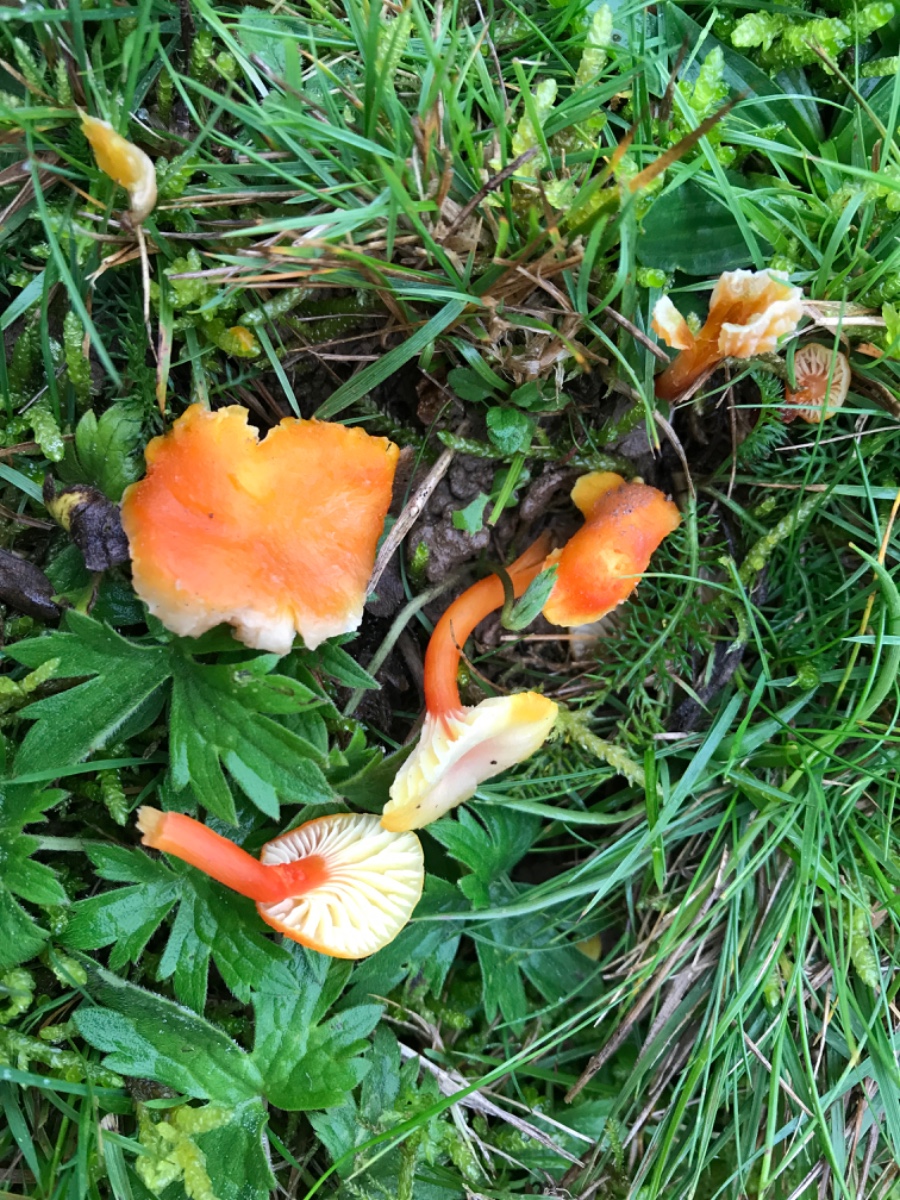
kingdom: Fungi
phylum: Basidiomycota
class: Agaricomycetes
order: Agaricales
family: Hygrophoraceae
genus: Hygrocybe
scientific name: Hygrocybe cantharellus
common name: kantarel-vokshat
